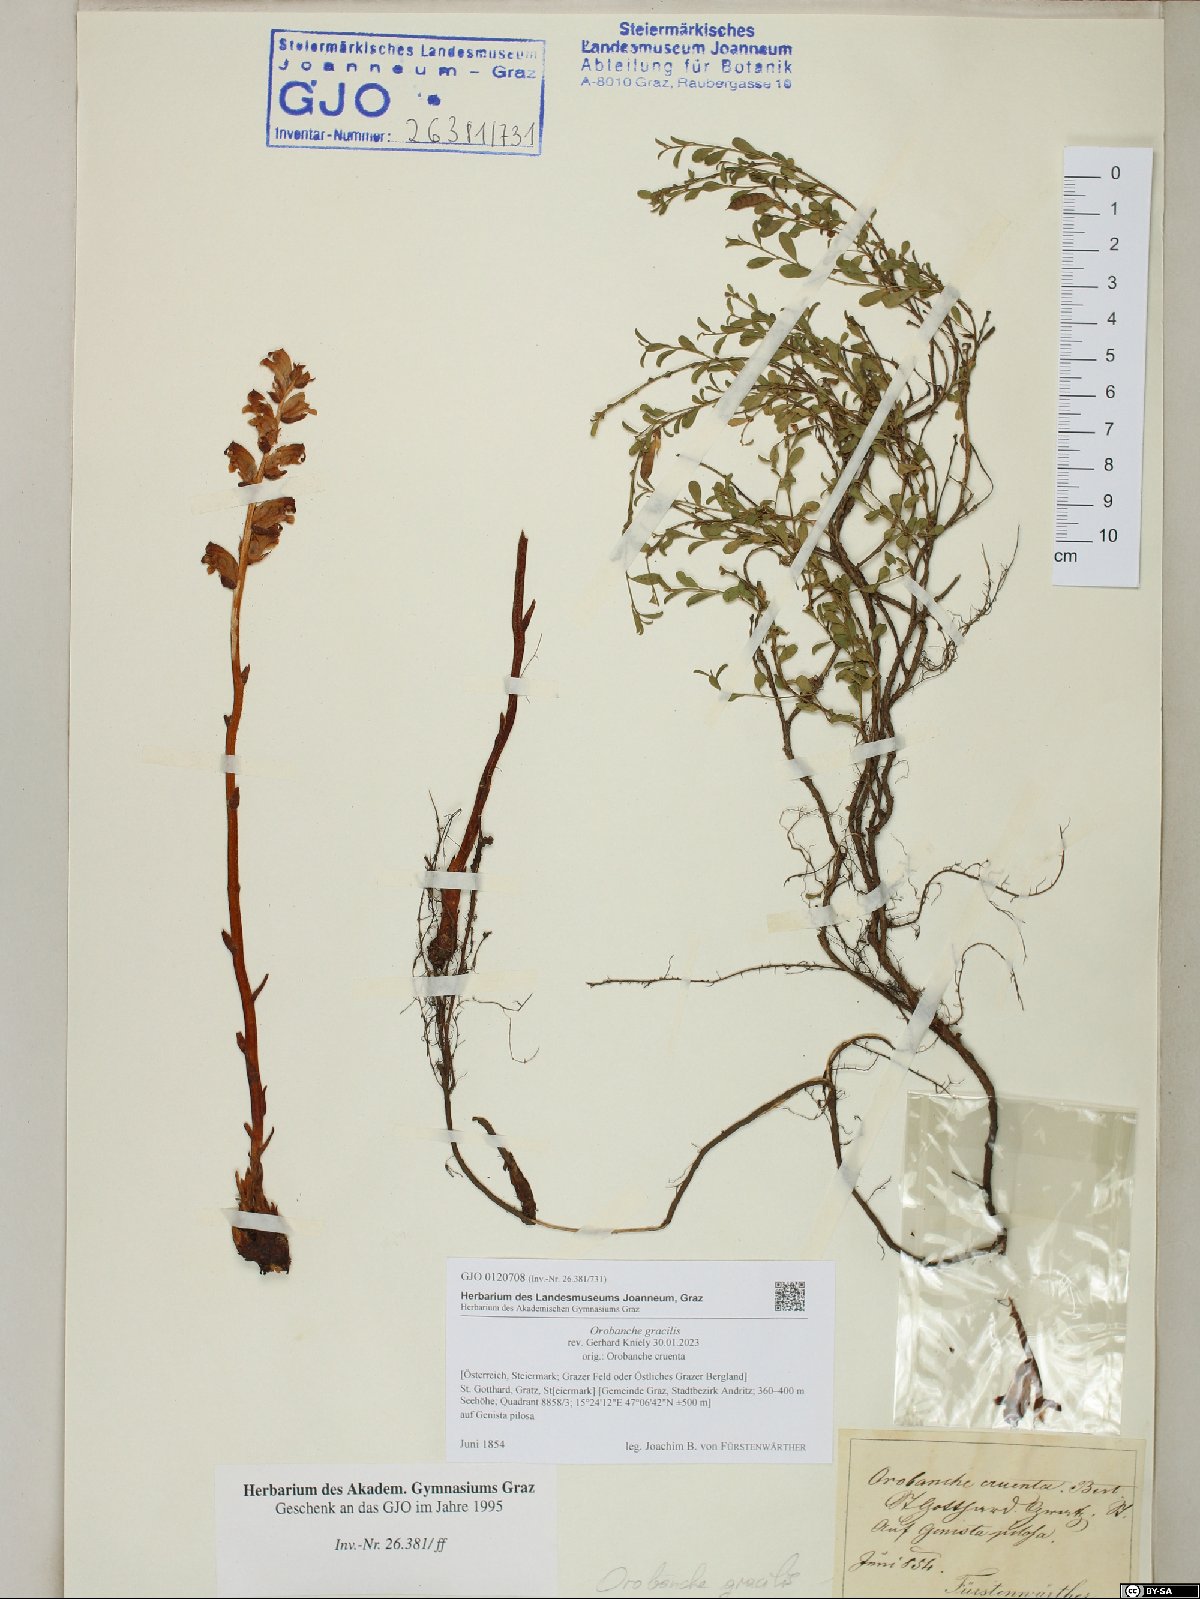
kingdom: Plantae
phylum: Tracheophyta
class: Magnoliopsida
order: Lamiales
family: Orobanchaceae
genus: Orobanche
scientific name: Orobanche gracilis
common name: Slender broomrape
